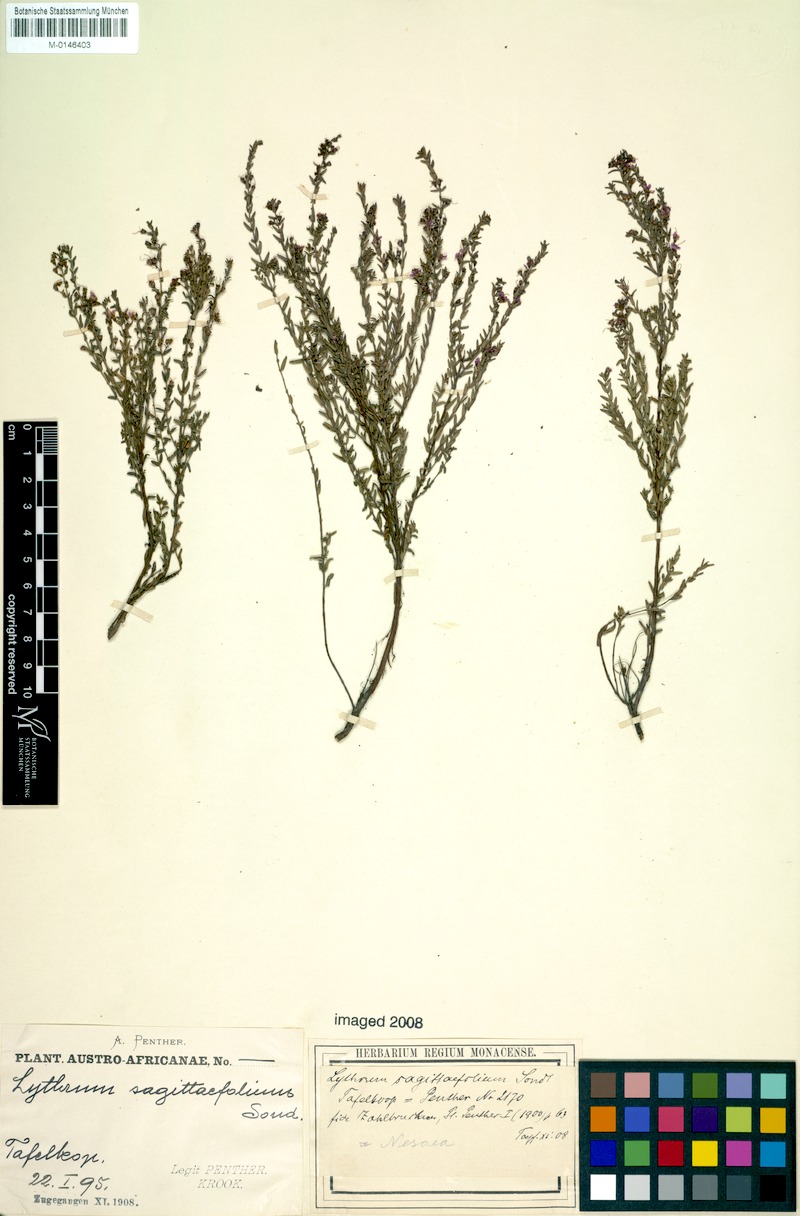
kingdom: Plantae
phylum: Tracheophyta
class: Magnoliopsida
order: Myrtales
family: Lythraceae
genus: Ammannia
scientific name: Ammannia sagittifolia
